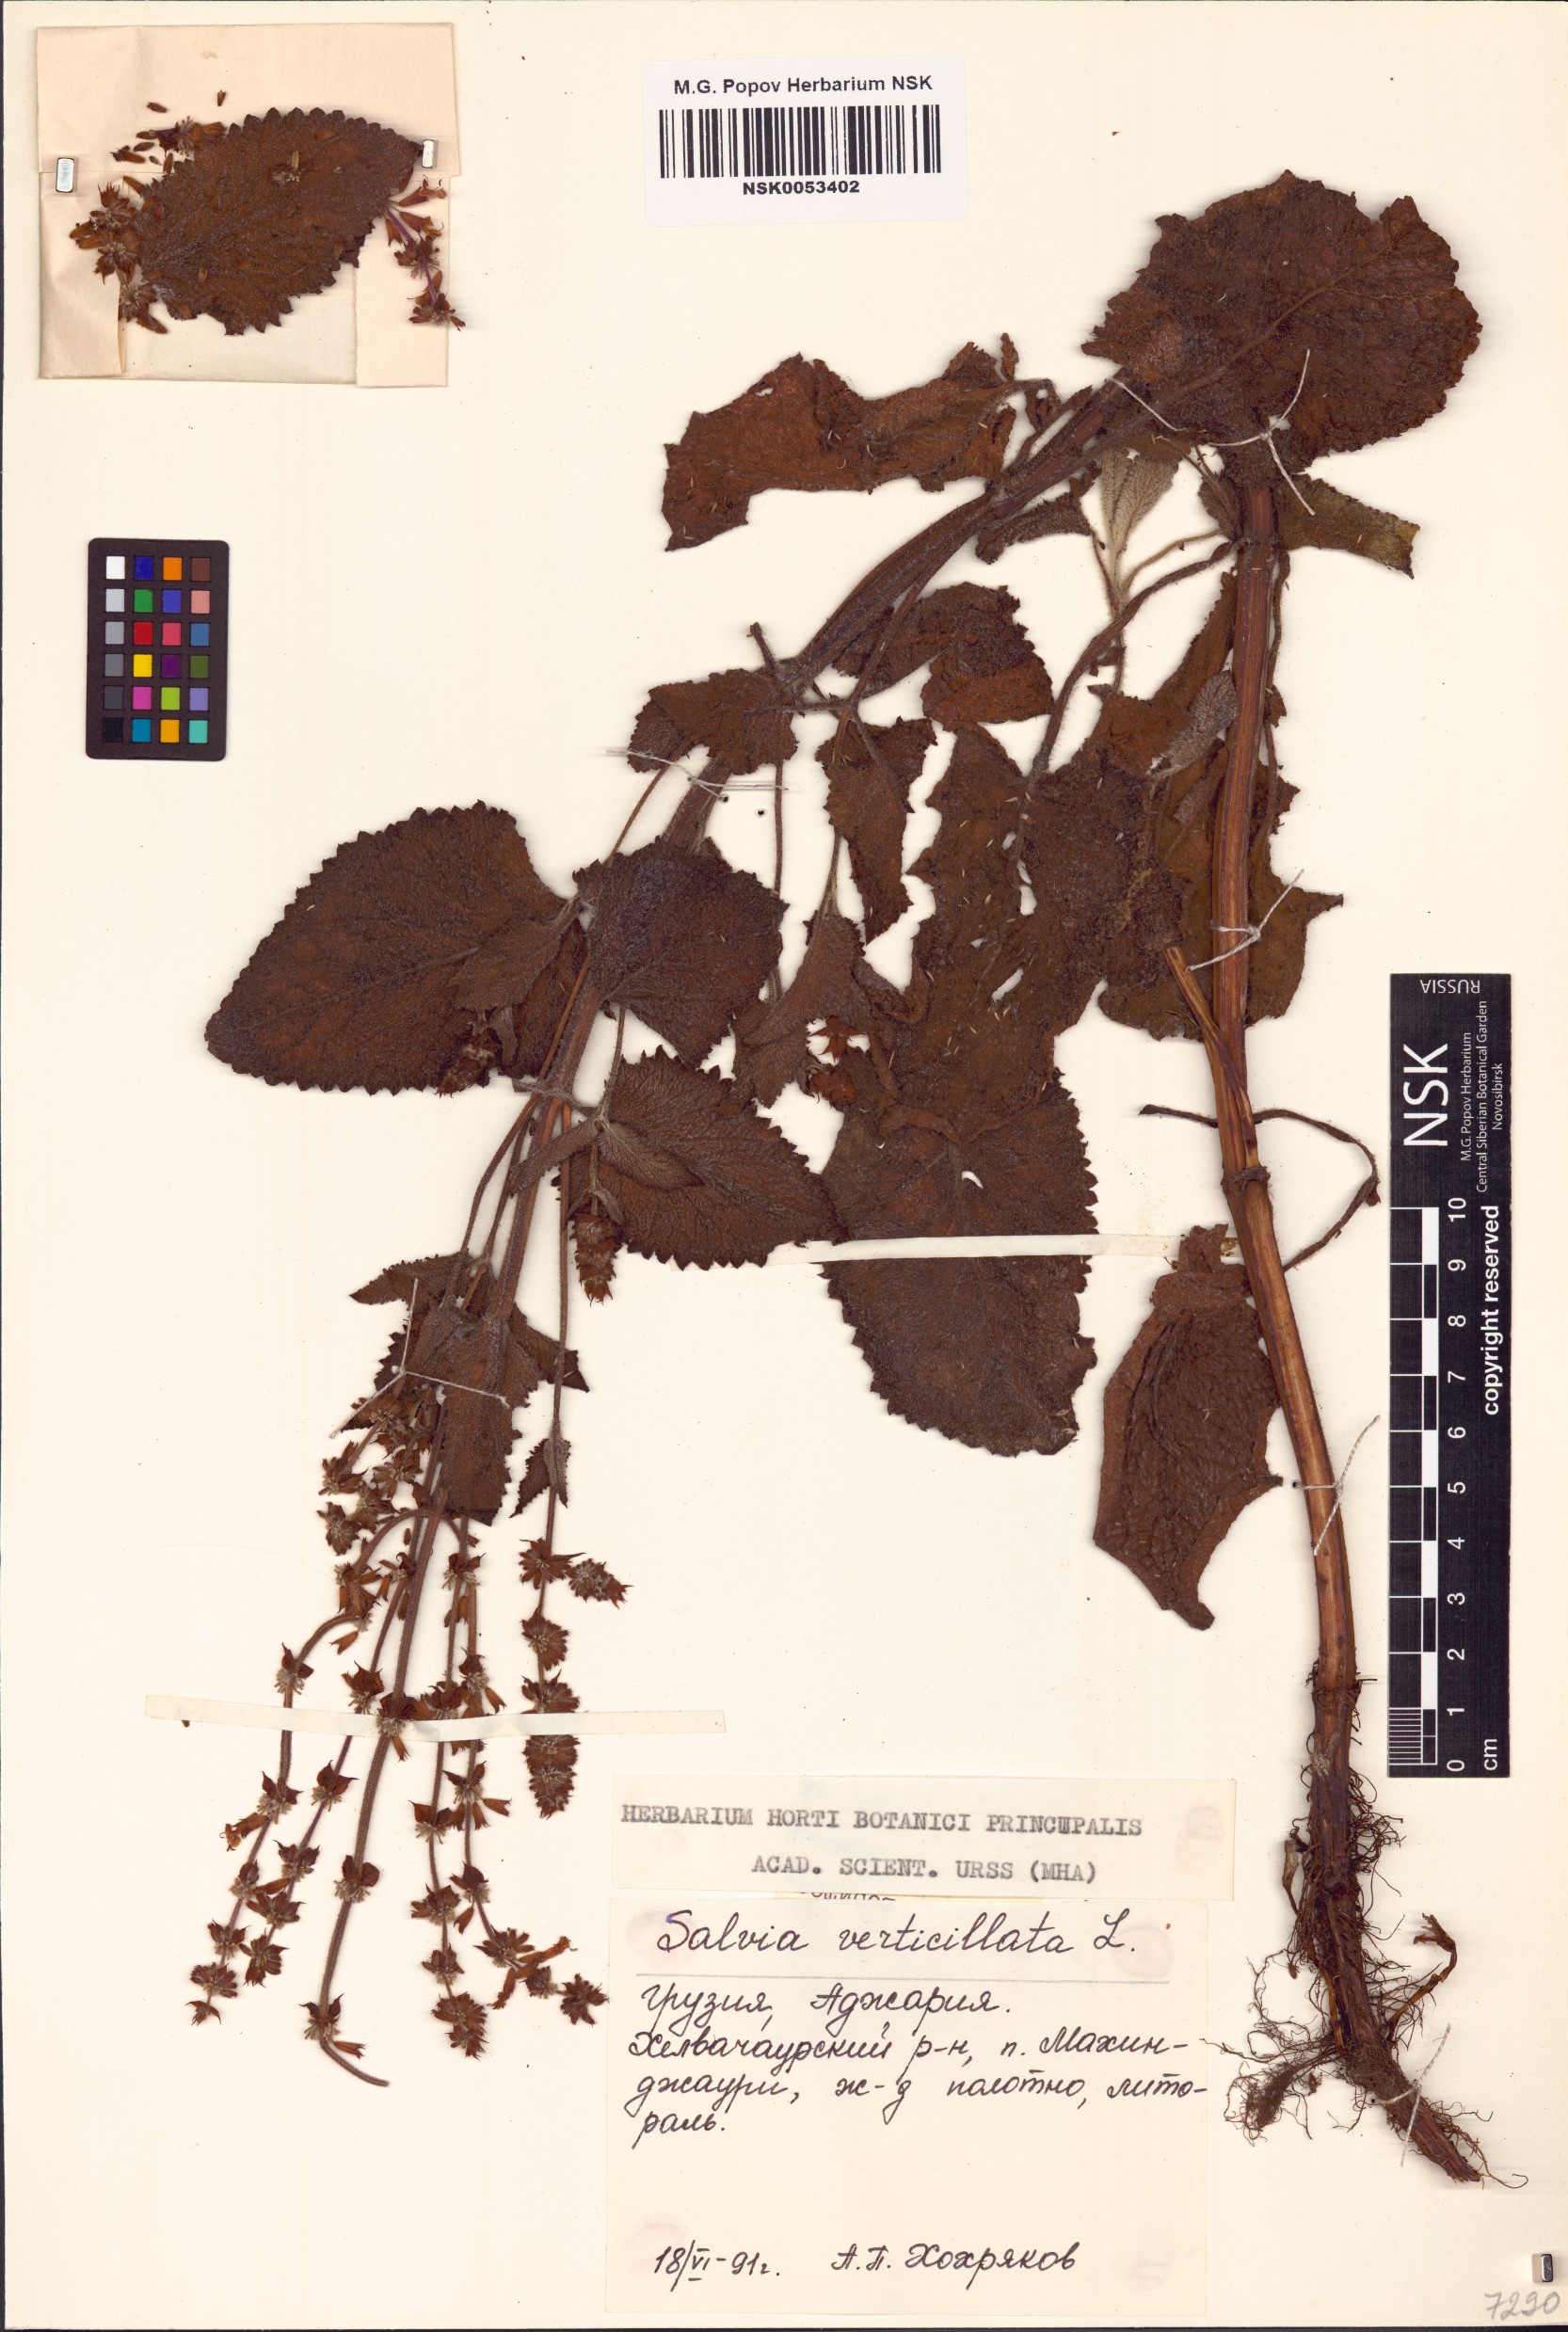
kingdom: Plantae
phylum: Tracheophyta
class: Magnoliopsida
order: Lamiales
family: Lamiaceae
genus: Salvia
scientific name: Salvia verticillata
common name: Whorled clary
